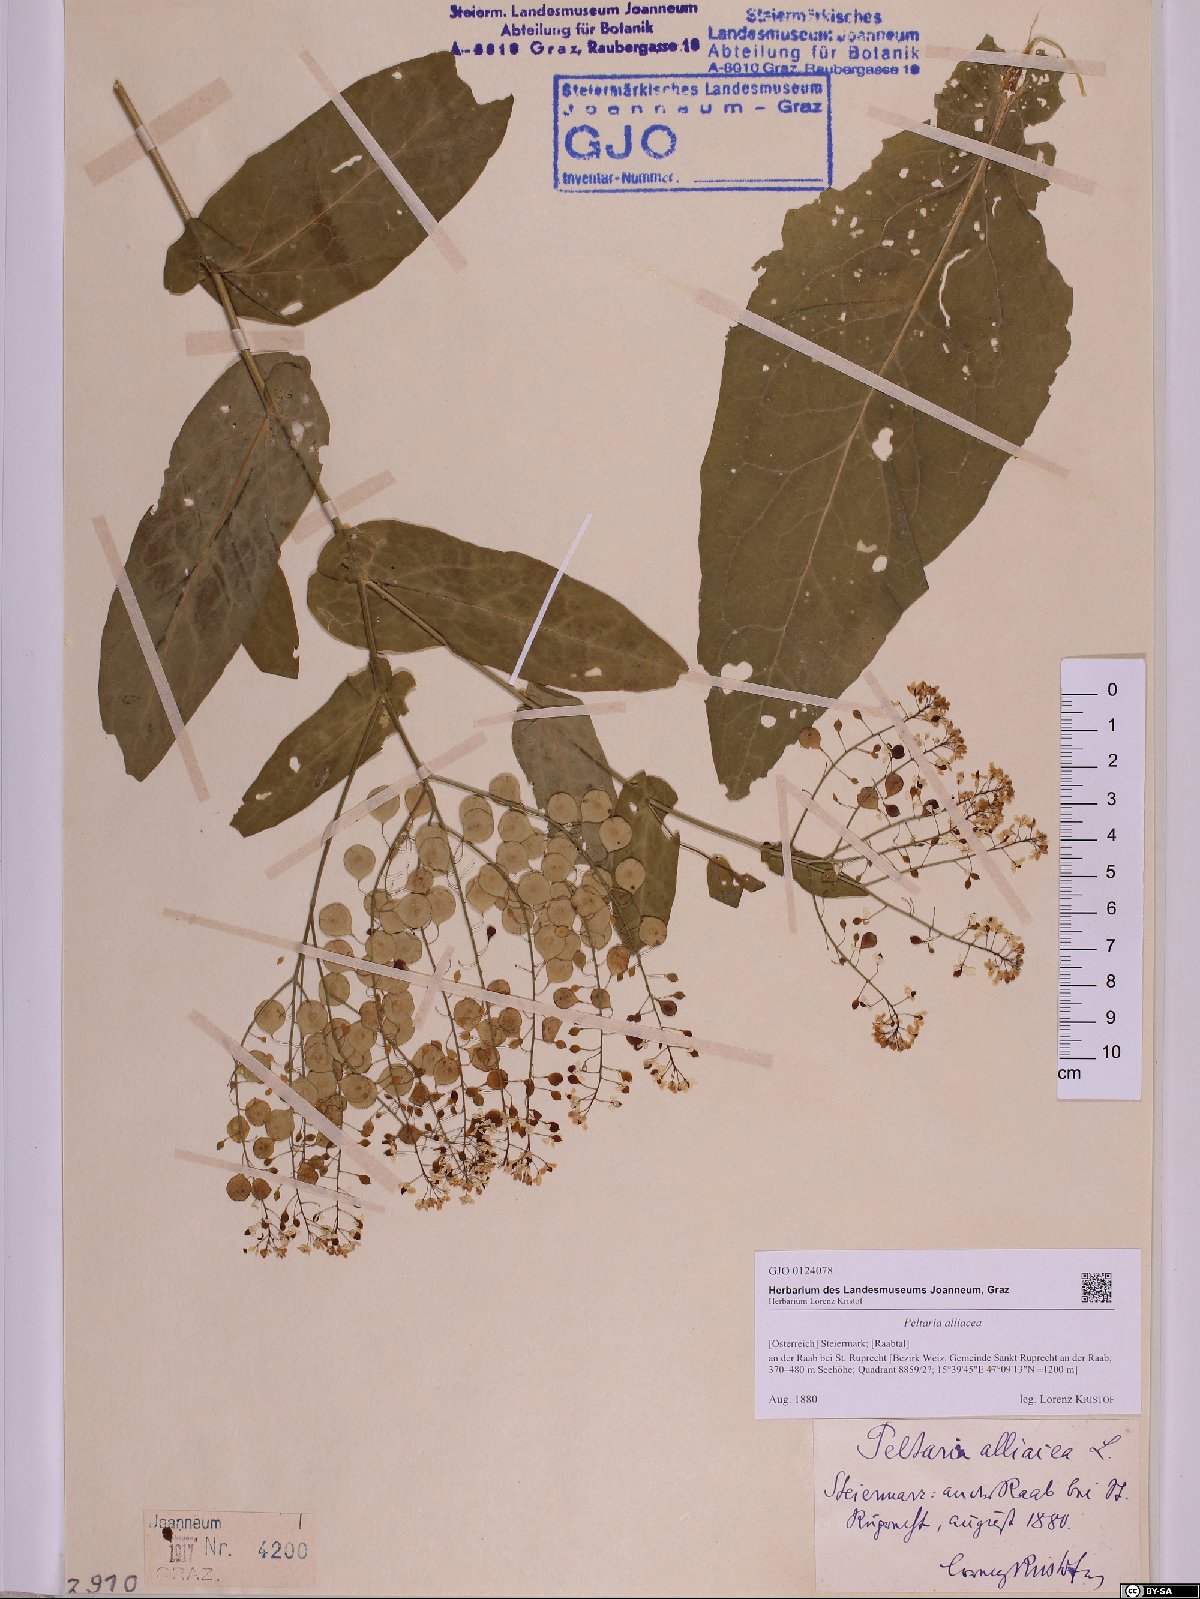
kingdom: Plantae
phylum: Tracheophyta
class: Magnoliopsida
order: Brassicales
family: Brassicaceae
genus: Peltaria
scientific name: Peltaria alliacea
